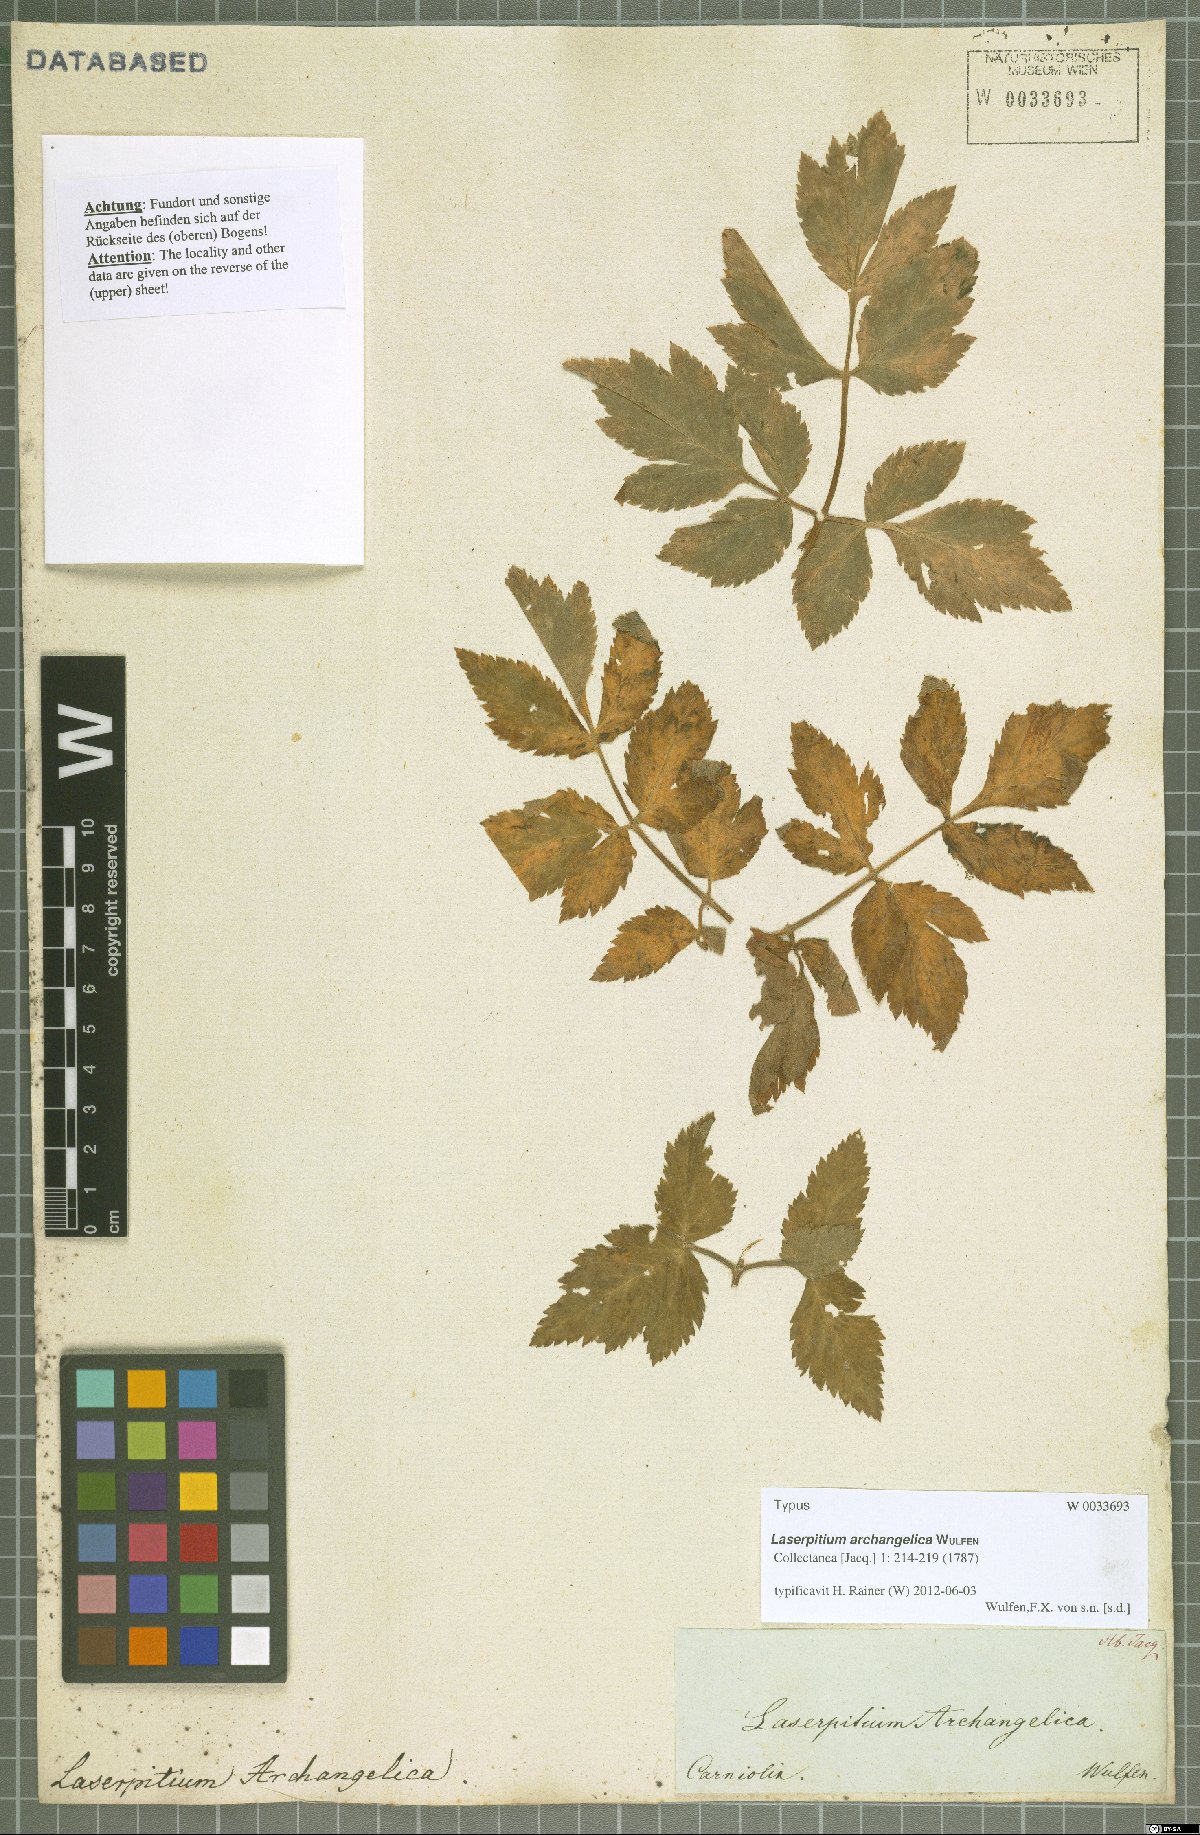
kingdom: Plantae
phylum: Tracheophyta
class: Magnoliopsida
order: Apiales
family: Apiaceae
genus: Laser
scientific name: Laser archangelica
